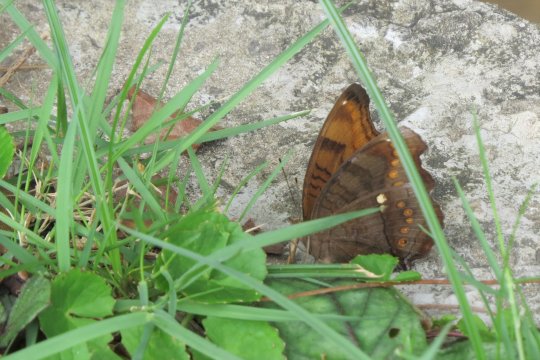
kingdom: Animalia
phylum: Arthropoda
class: Insecta
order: Lepidoptera
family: Nymphalidae
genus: Junonia
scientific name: Junonia hedonia
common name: Brown Pansy
